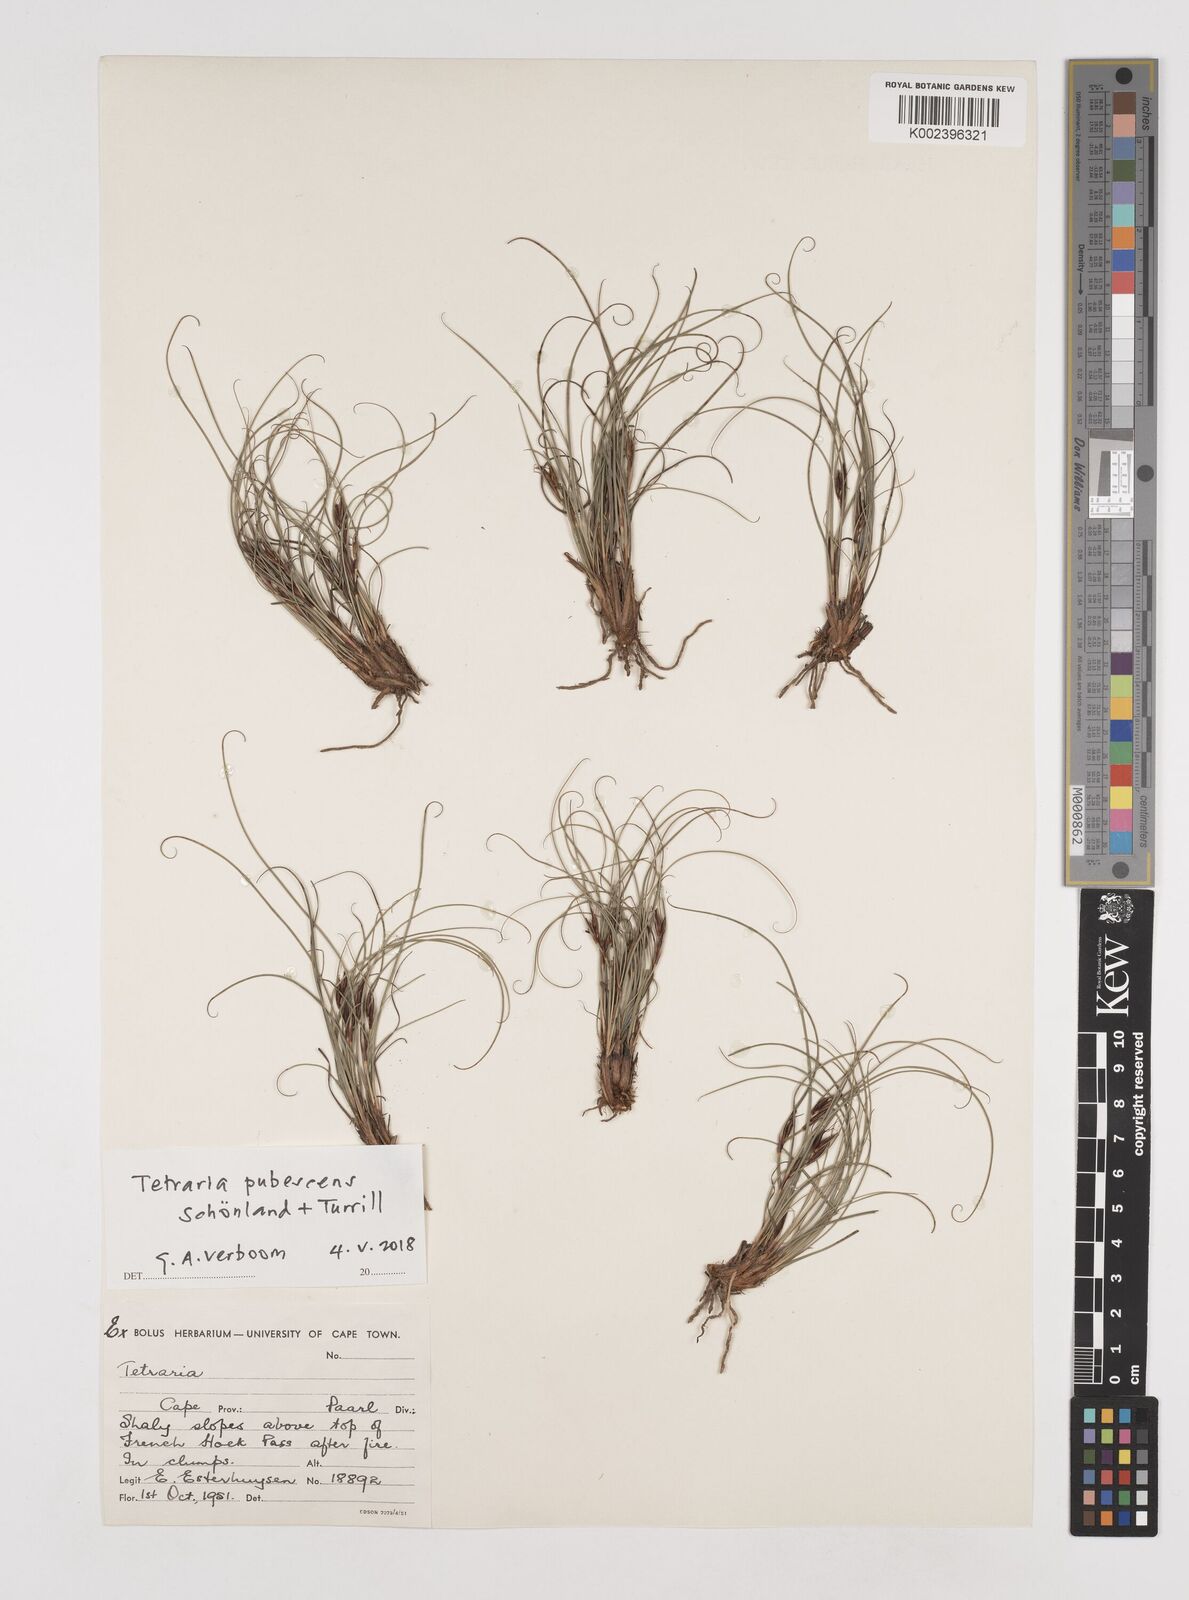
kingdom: Plantae
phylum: Tracheophyta
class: Liliopsida
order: Poales
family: Cyperaceae
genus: Tetraria
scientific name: Tetraria pubescens
